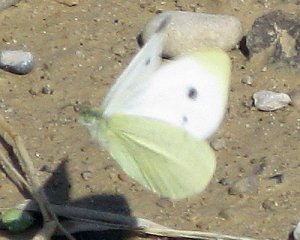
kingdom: Animalia
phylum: Arthropoda
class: Insecta
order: Lepidoptera
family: Pieridae
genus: Pieris
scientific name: Pieris rapae
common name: Cabbage White
